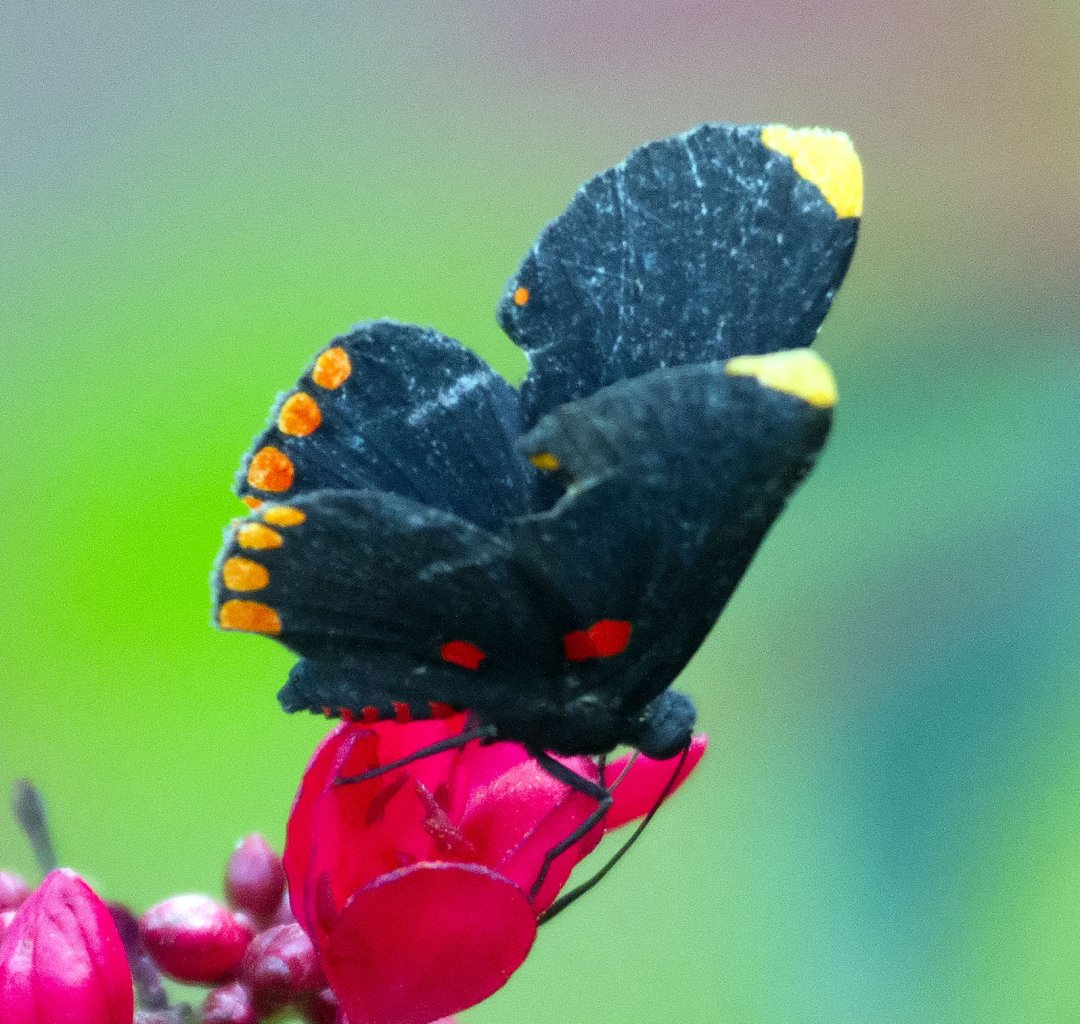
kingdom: Animalia
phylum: Arthropoda
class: Insecta
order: Lepidoptera
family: Lycaenidae
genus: Melanis
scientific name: Melanis pixe
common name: Red-bordered Pixie
